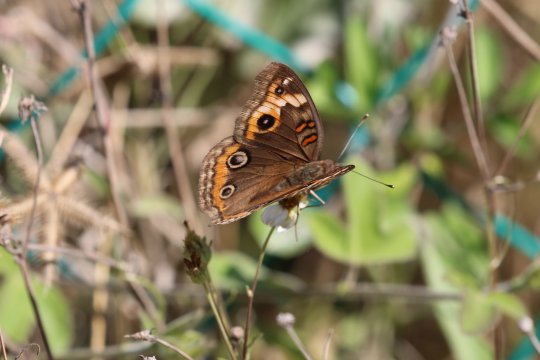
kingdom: Animalia
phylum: Arthropoda
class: Insecta
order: Lepidoptera
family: Nymphalidae
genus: Junonia
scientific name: Junonia evarete
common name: Mangrove Buckeye
